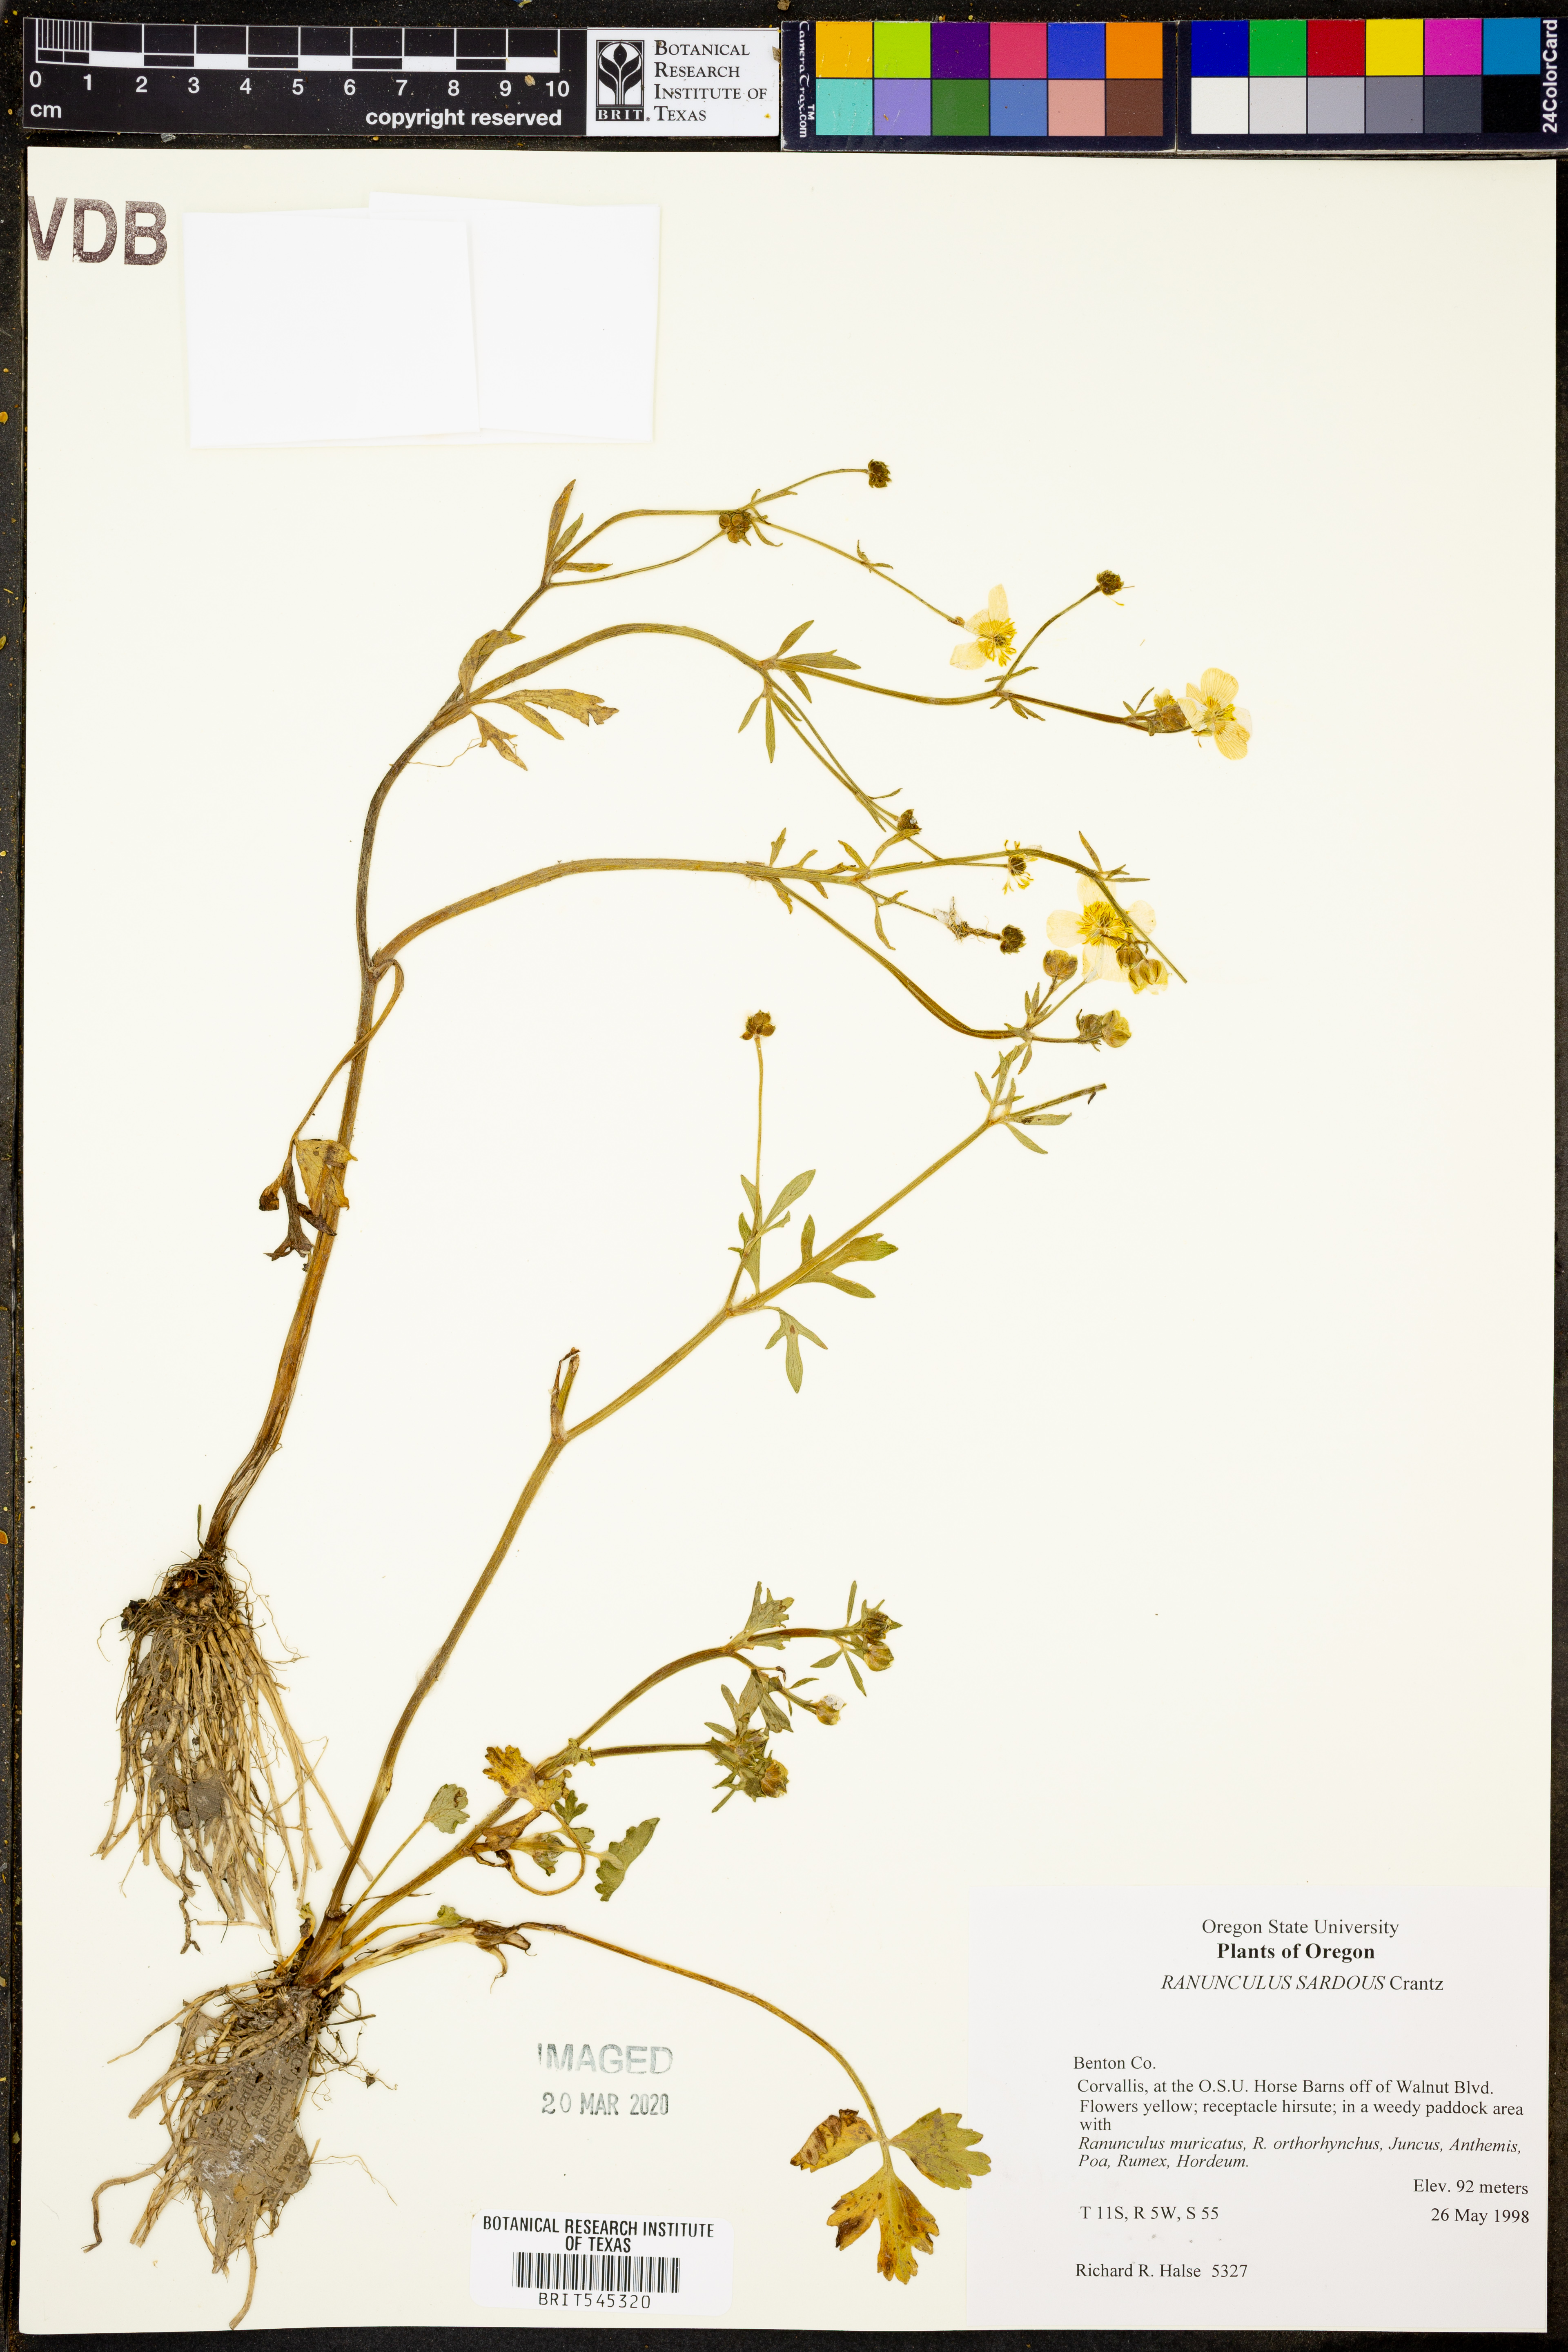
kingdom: Plantae
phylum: Tracheophyta
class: Magnoliopsida
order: Ranunculales
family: Ranunculaceae
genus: Ranunculus
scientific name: Ranunculus sardous
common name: Hairy buttercup
